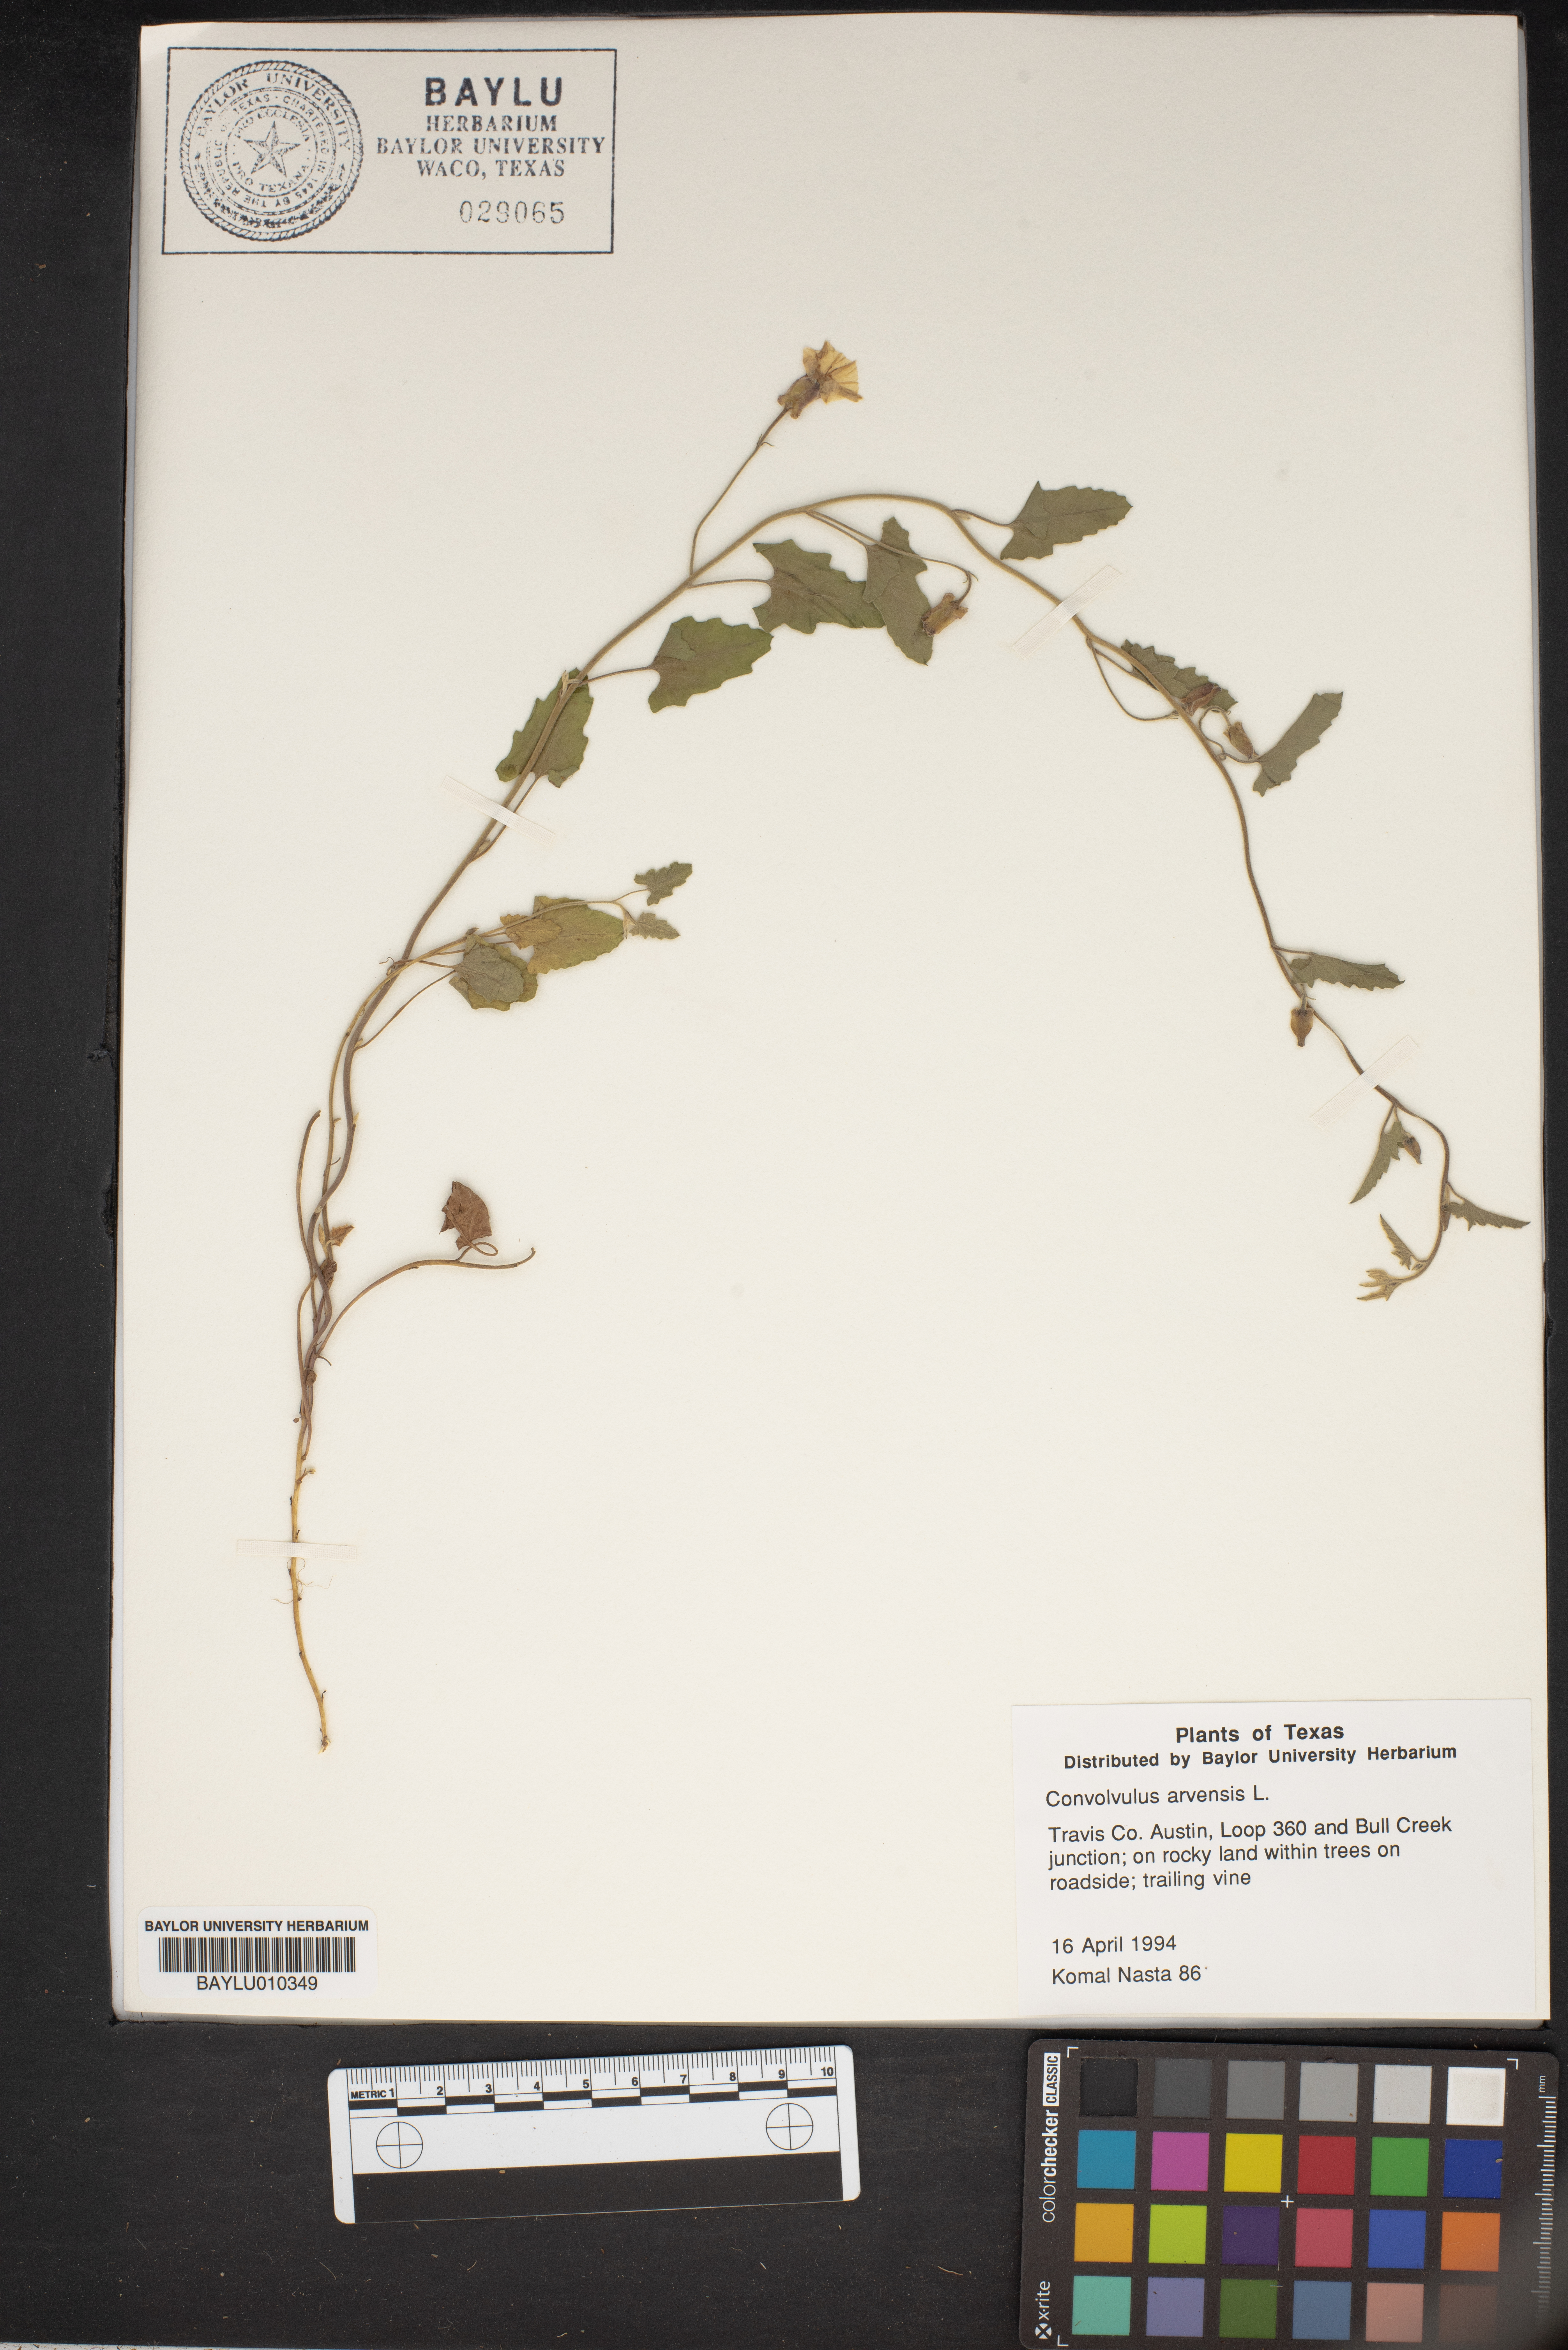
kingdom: Plantae
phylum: Tracheophyta
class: Magnoliopsida
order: Solanales
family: Convolvulaceae
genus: Convolvulus
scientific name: Convolvulus arvensis
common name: Field bindweed
